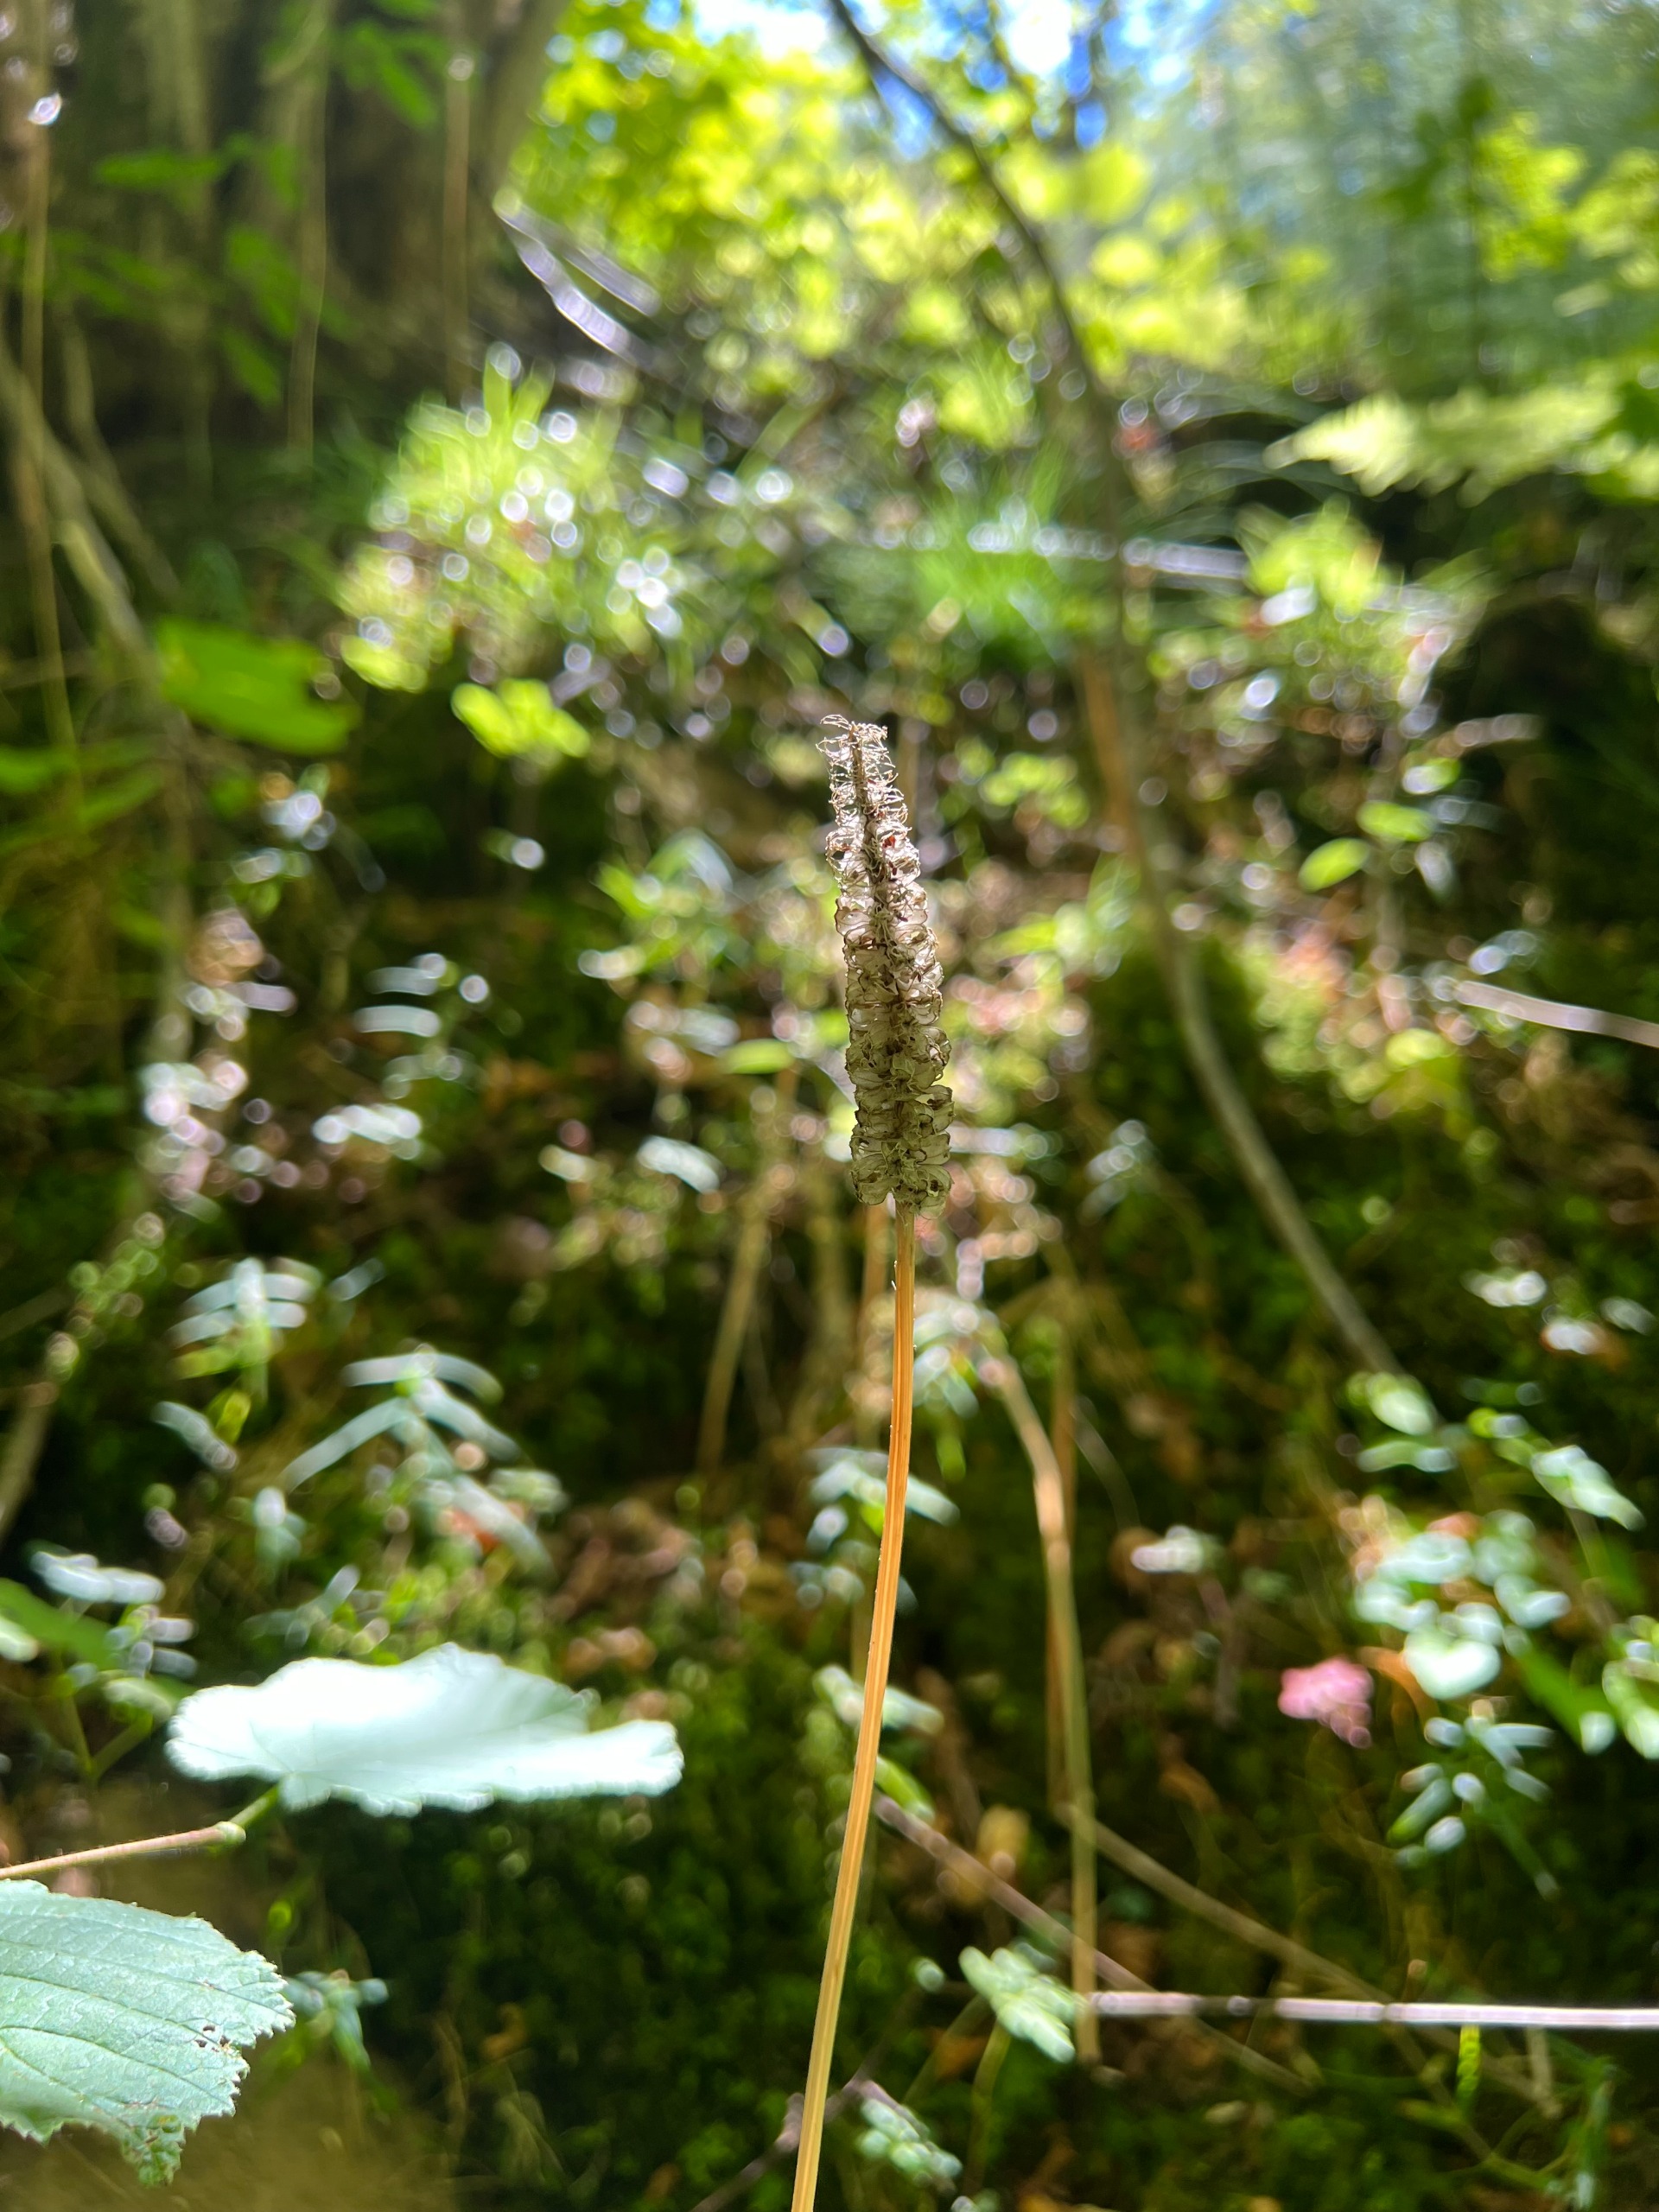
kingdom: Plantae
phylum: Tracheophyta
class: Magnoliopsida
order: Asterales
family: Campanulaceae
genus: Phyteuma
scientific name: Phyteuma spicatum
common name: Aks-rapunsel
